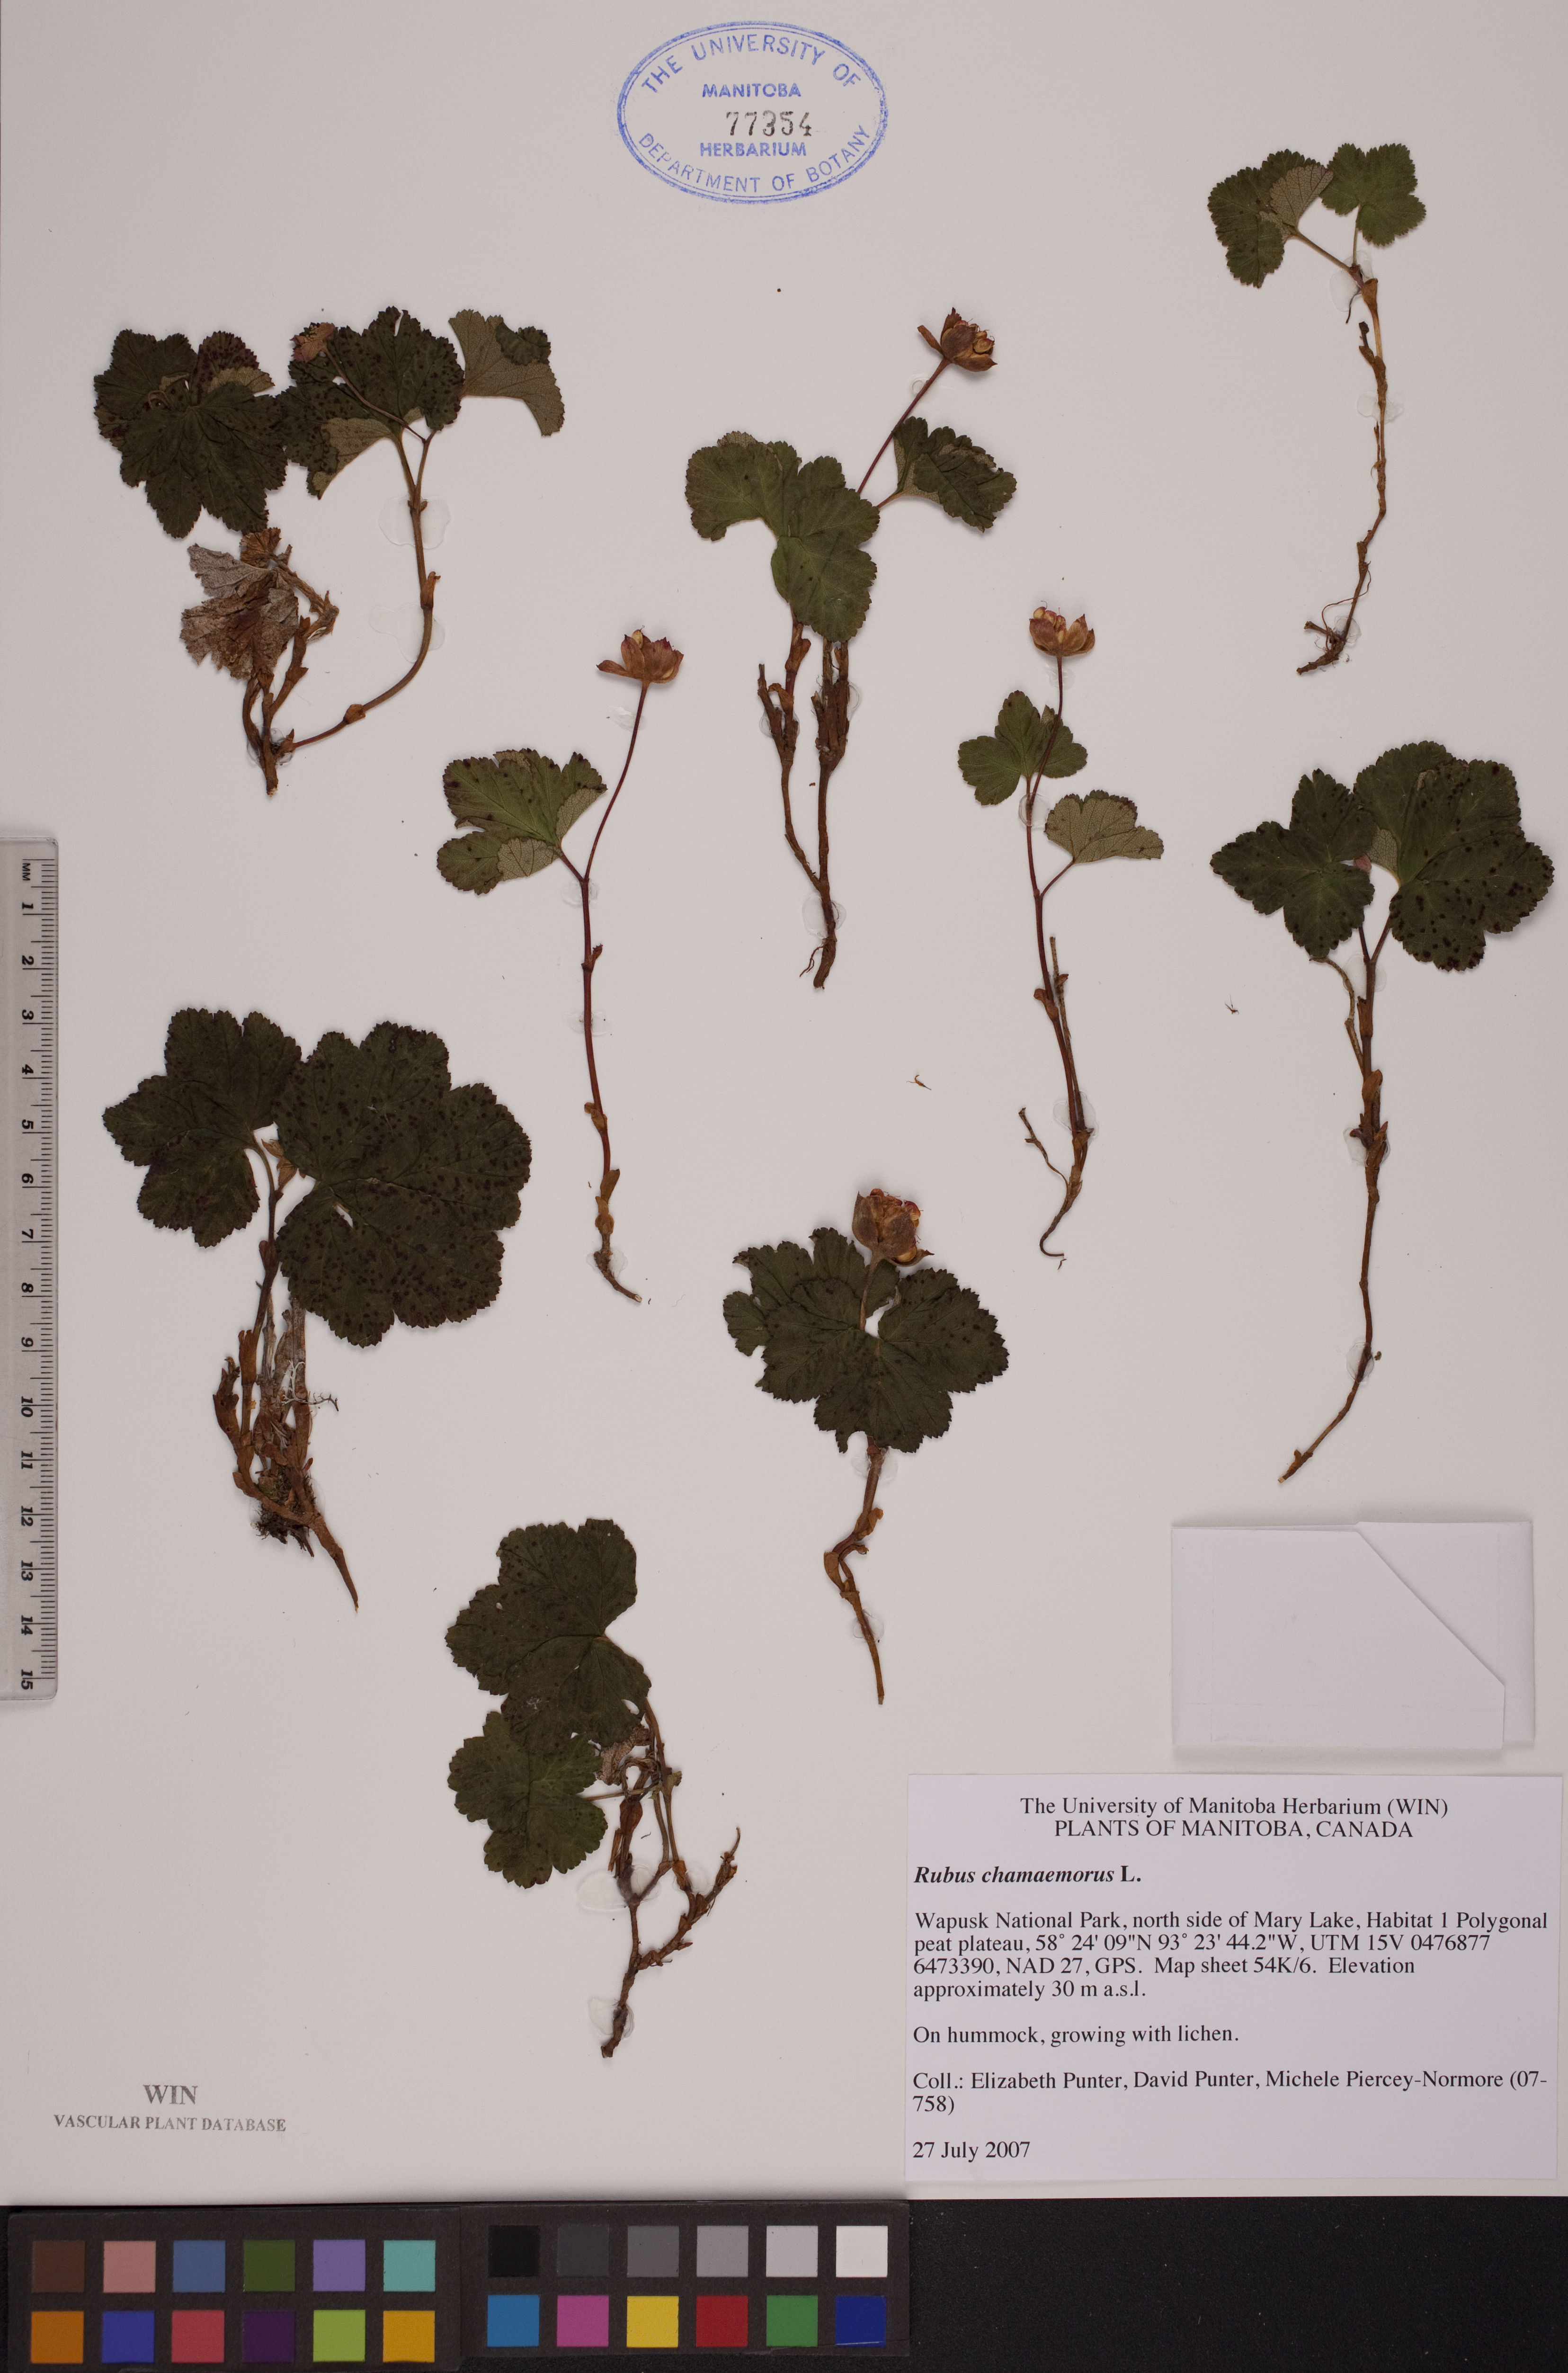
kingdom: Plantae
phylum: Tracheophyta
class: Magnoliopsida
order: Rosales
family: Rosaceae
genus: Rubus
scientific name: Rubus chamaemorus
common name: Cloudberry
